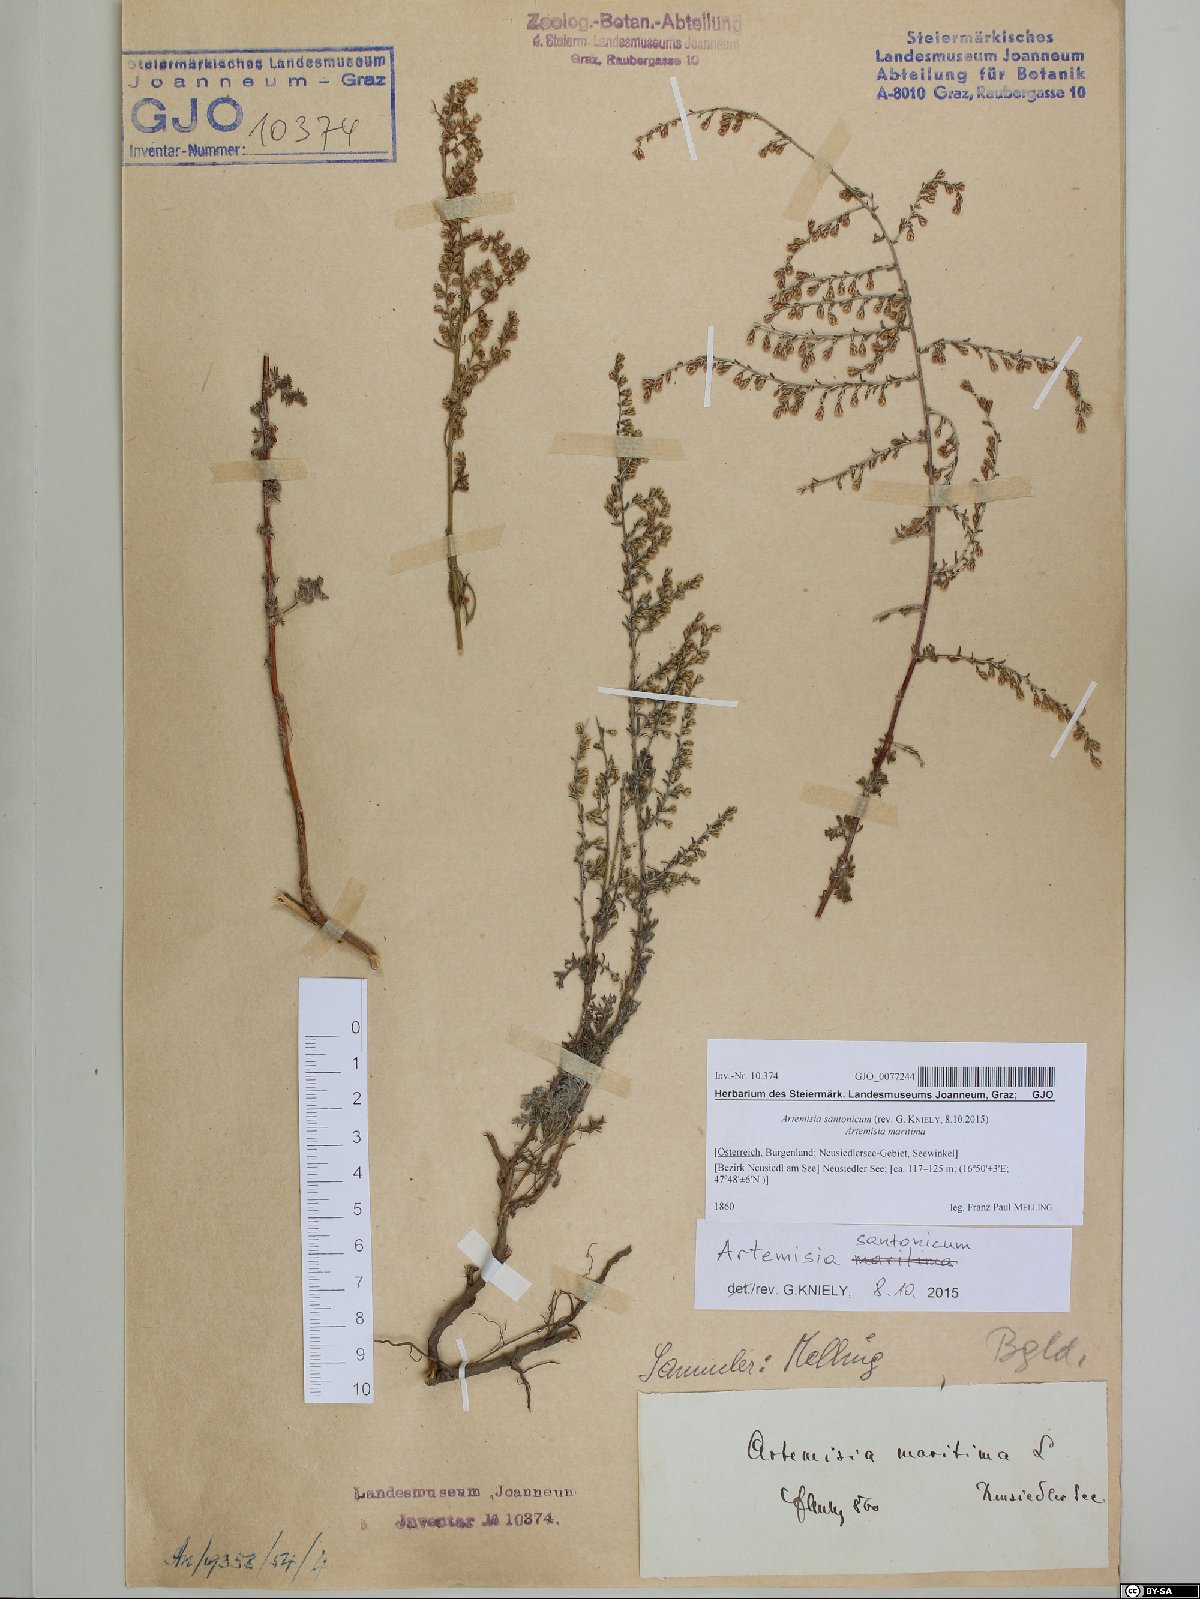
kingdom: Plantae
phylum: Tracheophyta
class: Magnoliopsida
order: Asterales
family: Asteraceae
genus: Artemisia
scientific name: Artemisia santonicum
